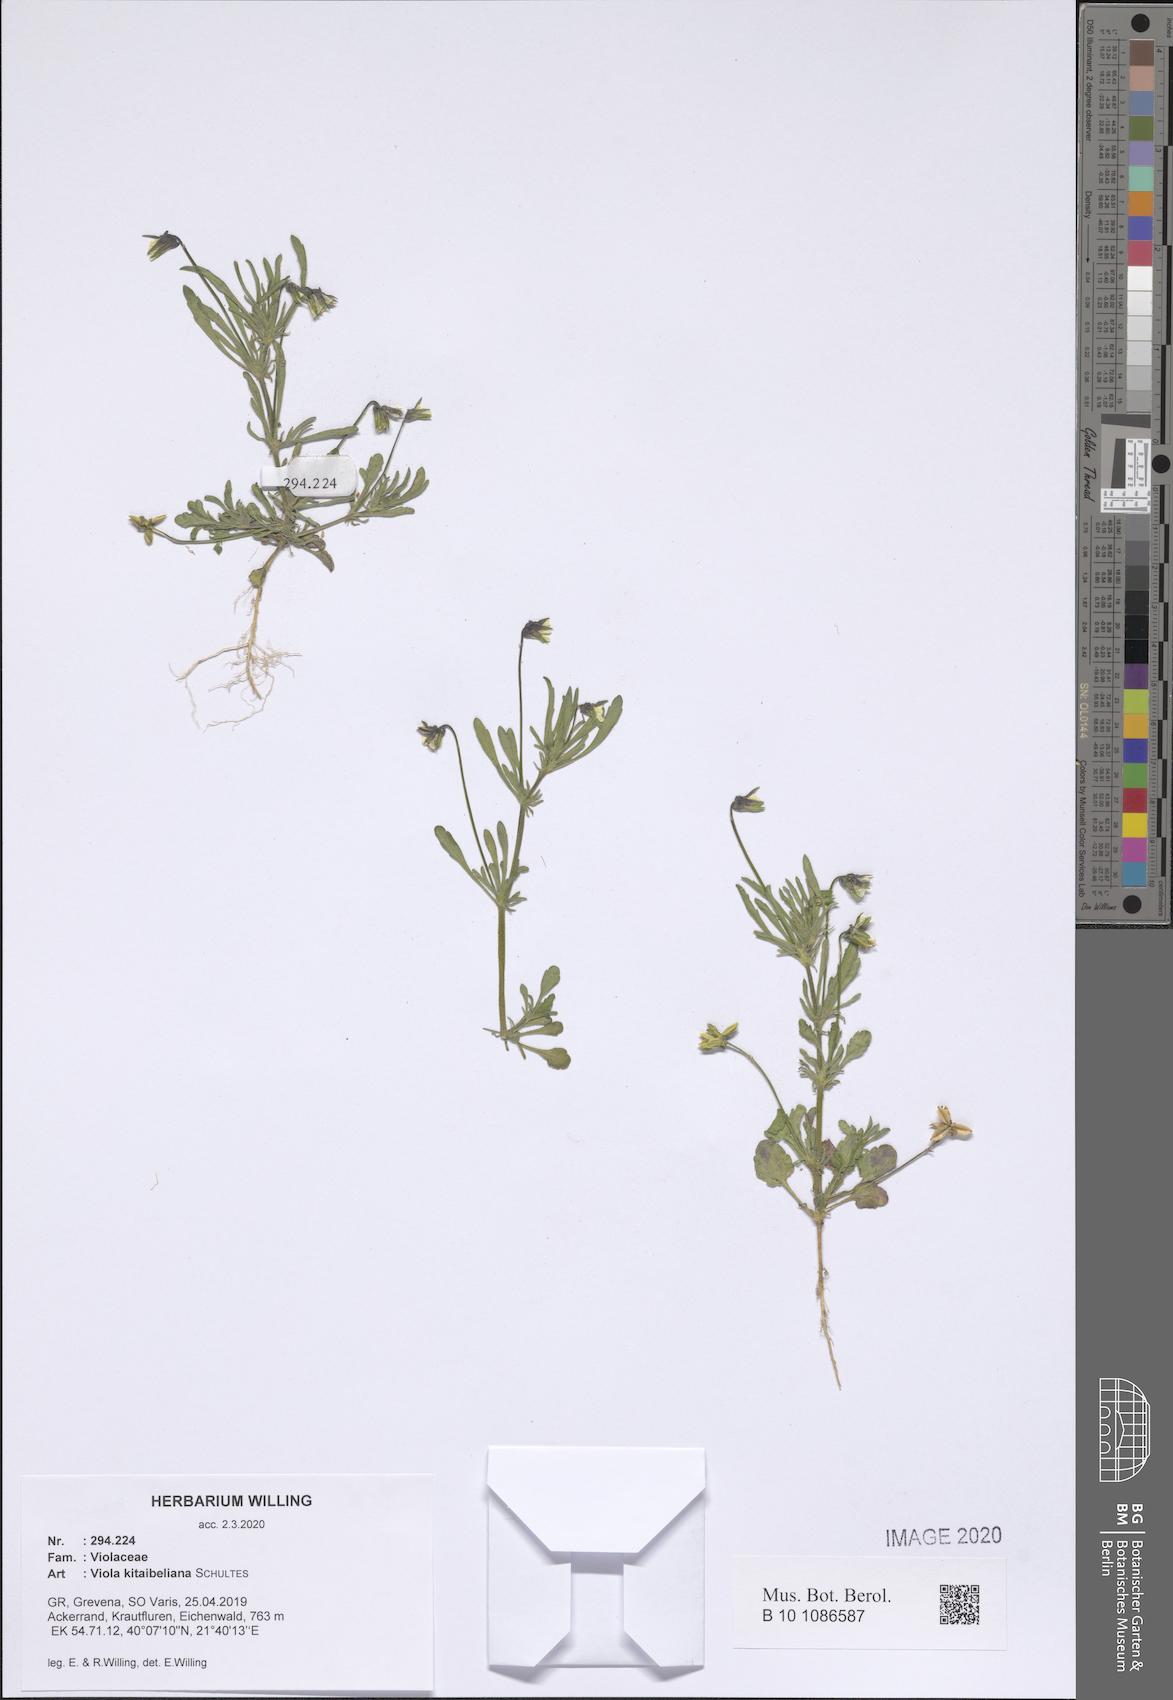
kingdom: Plantae
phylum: Tracheophyta
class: Magnoliopsida
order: Malpighiales
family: Violaceae
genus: Viola
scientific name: Viola kitaibeliana
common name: Dwarf pansy
